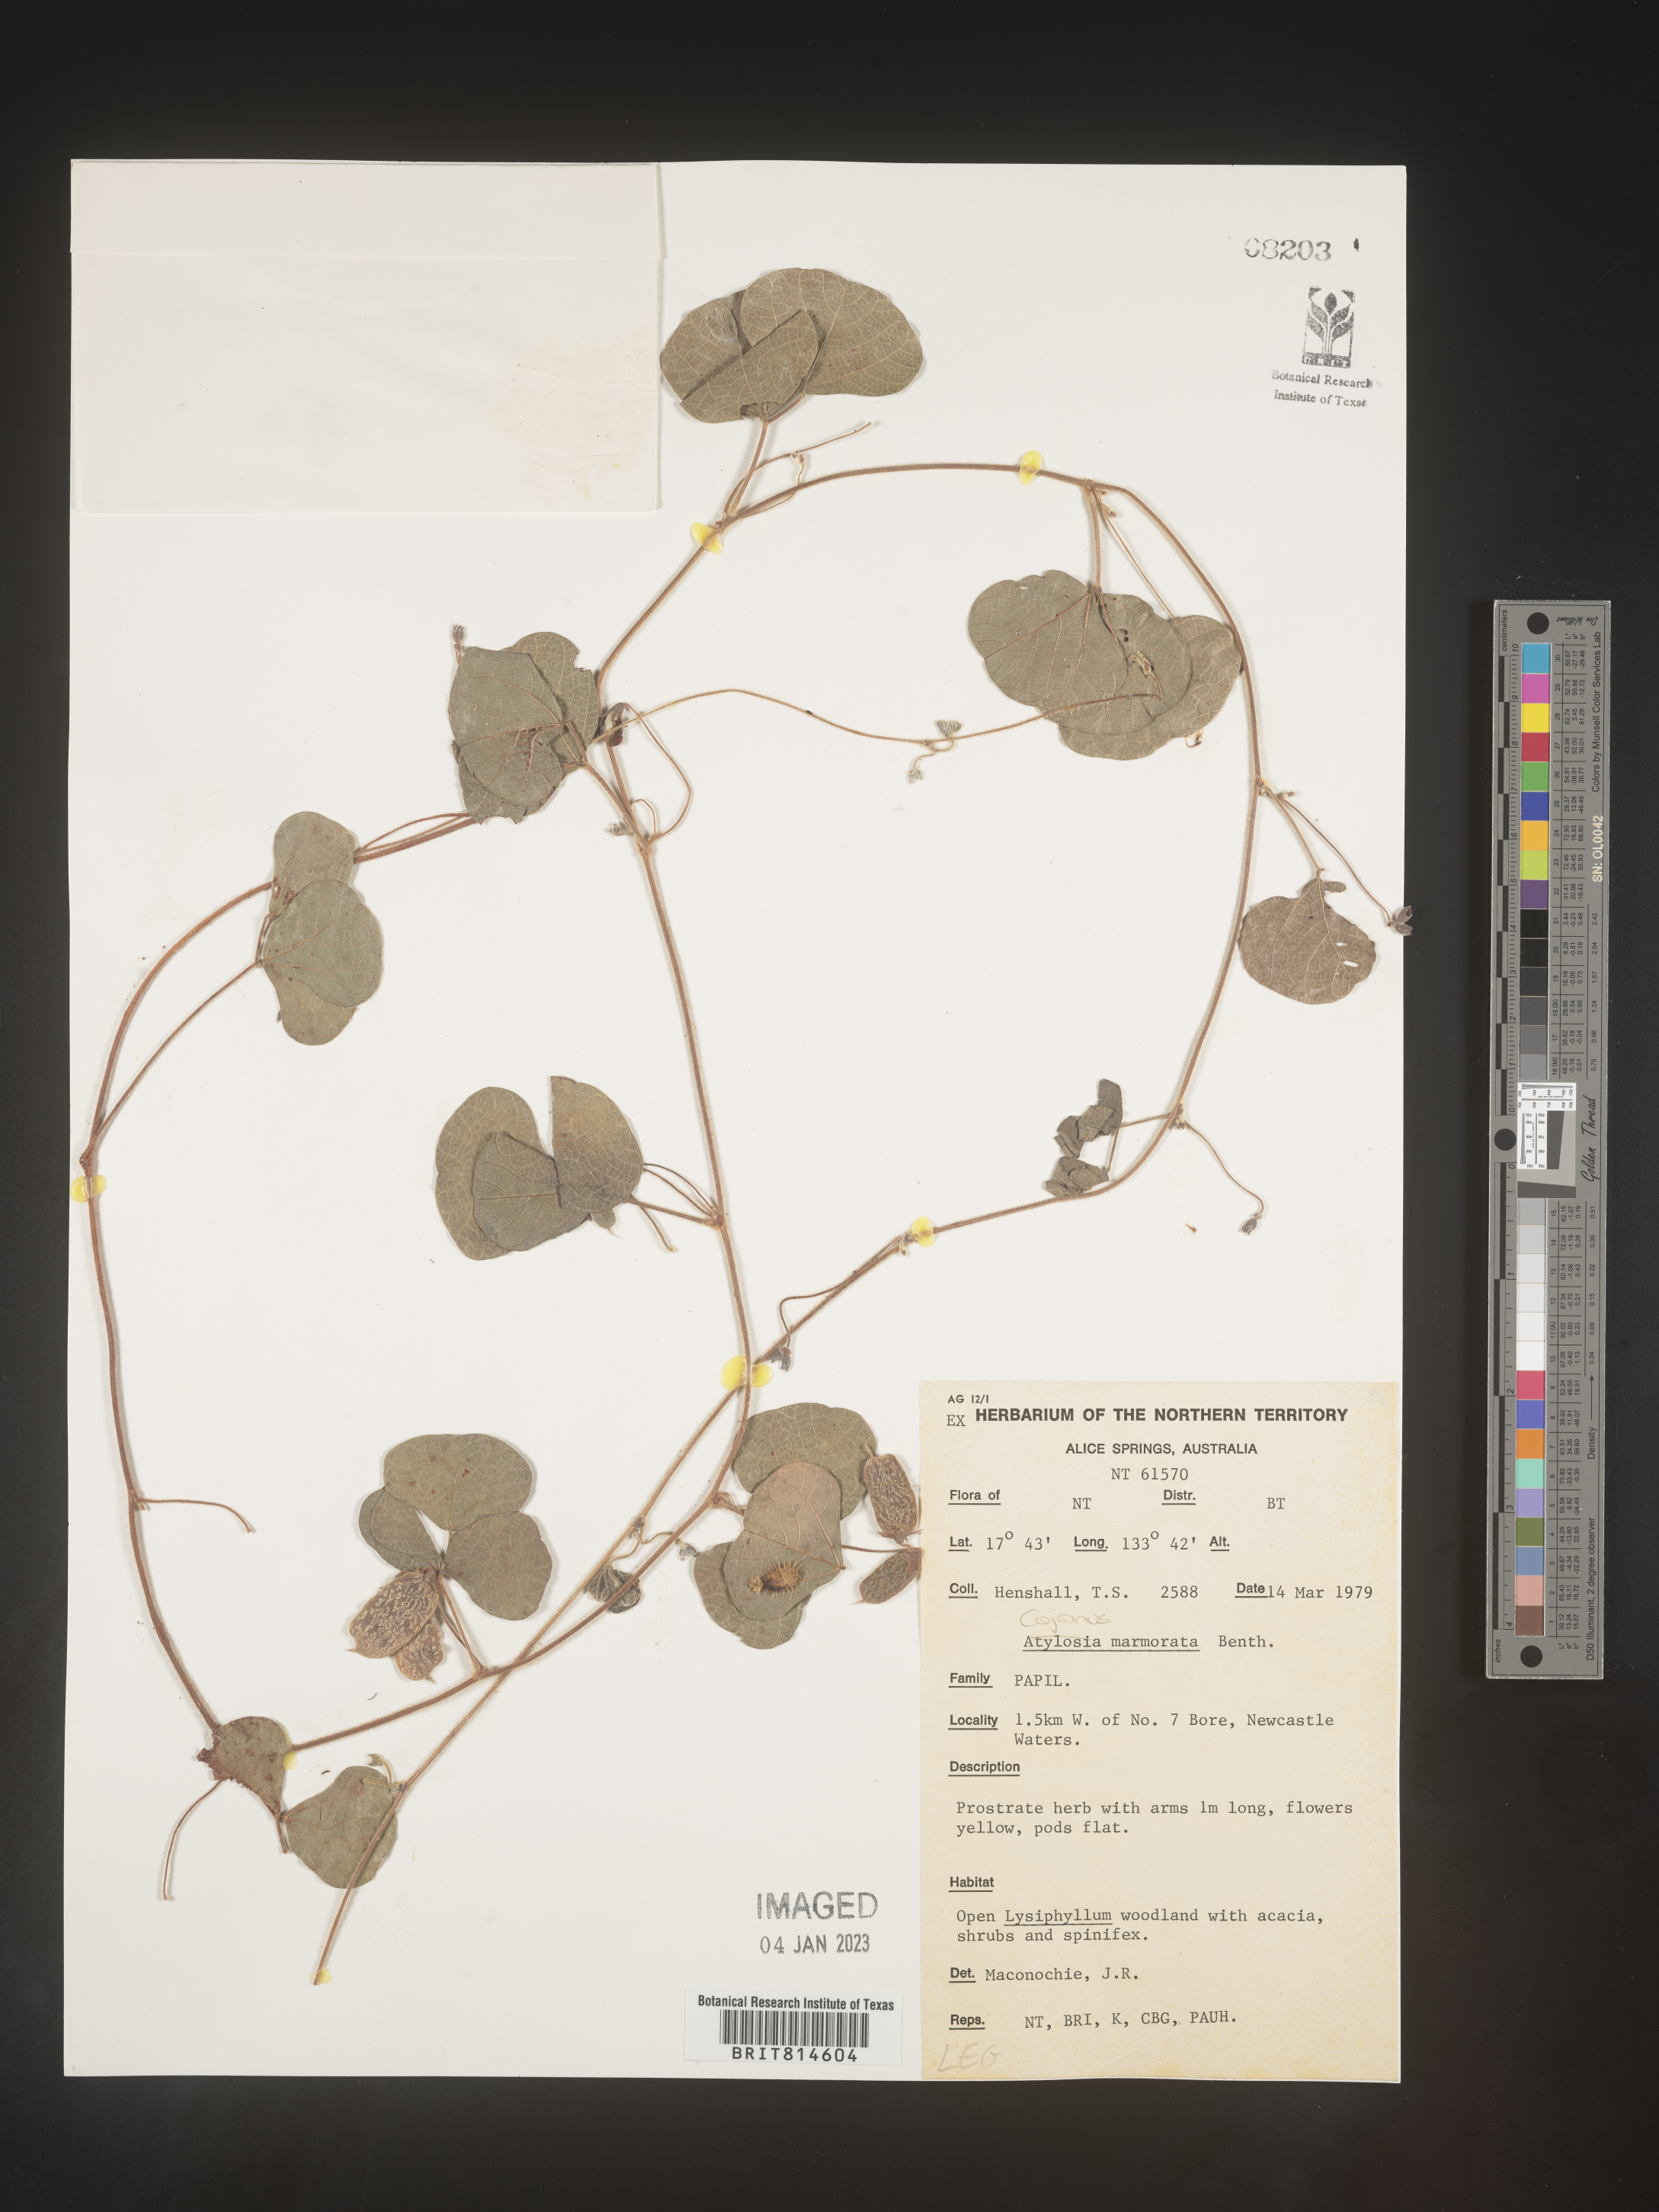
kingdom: Plantae
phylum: Tracheophyta
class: Magnoliopsida
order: Fabales
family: Fabaceae
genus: Cajanus
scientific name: Cajanus
